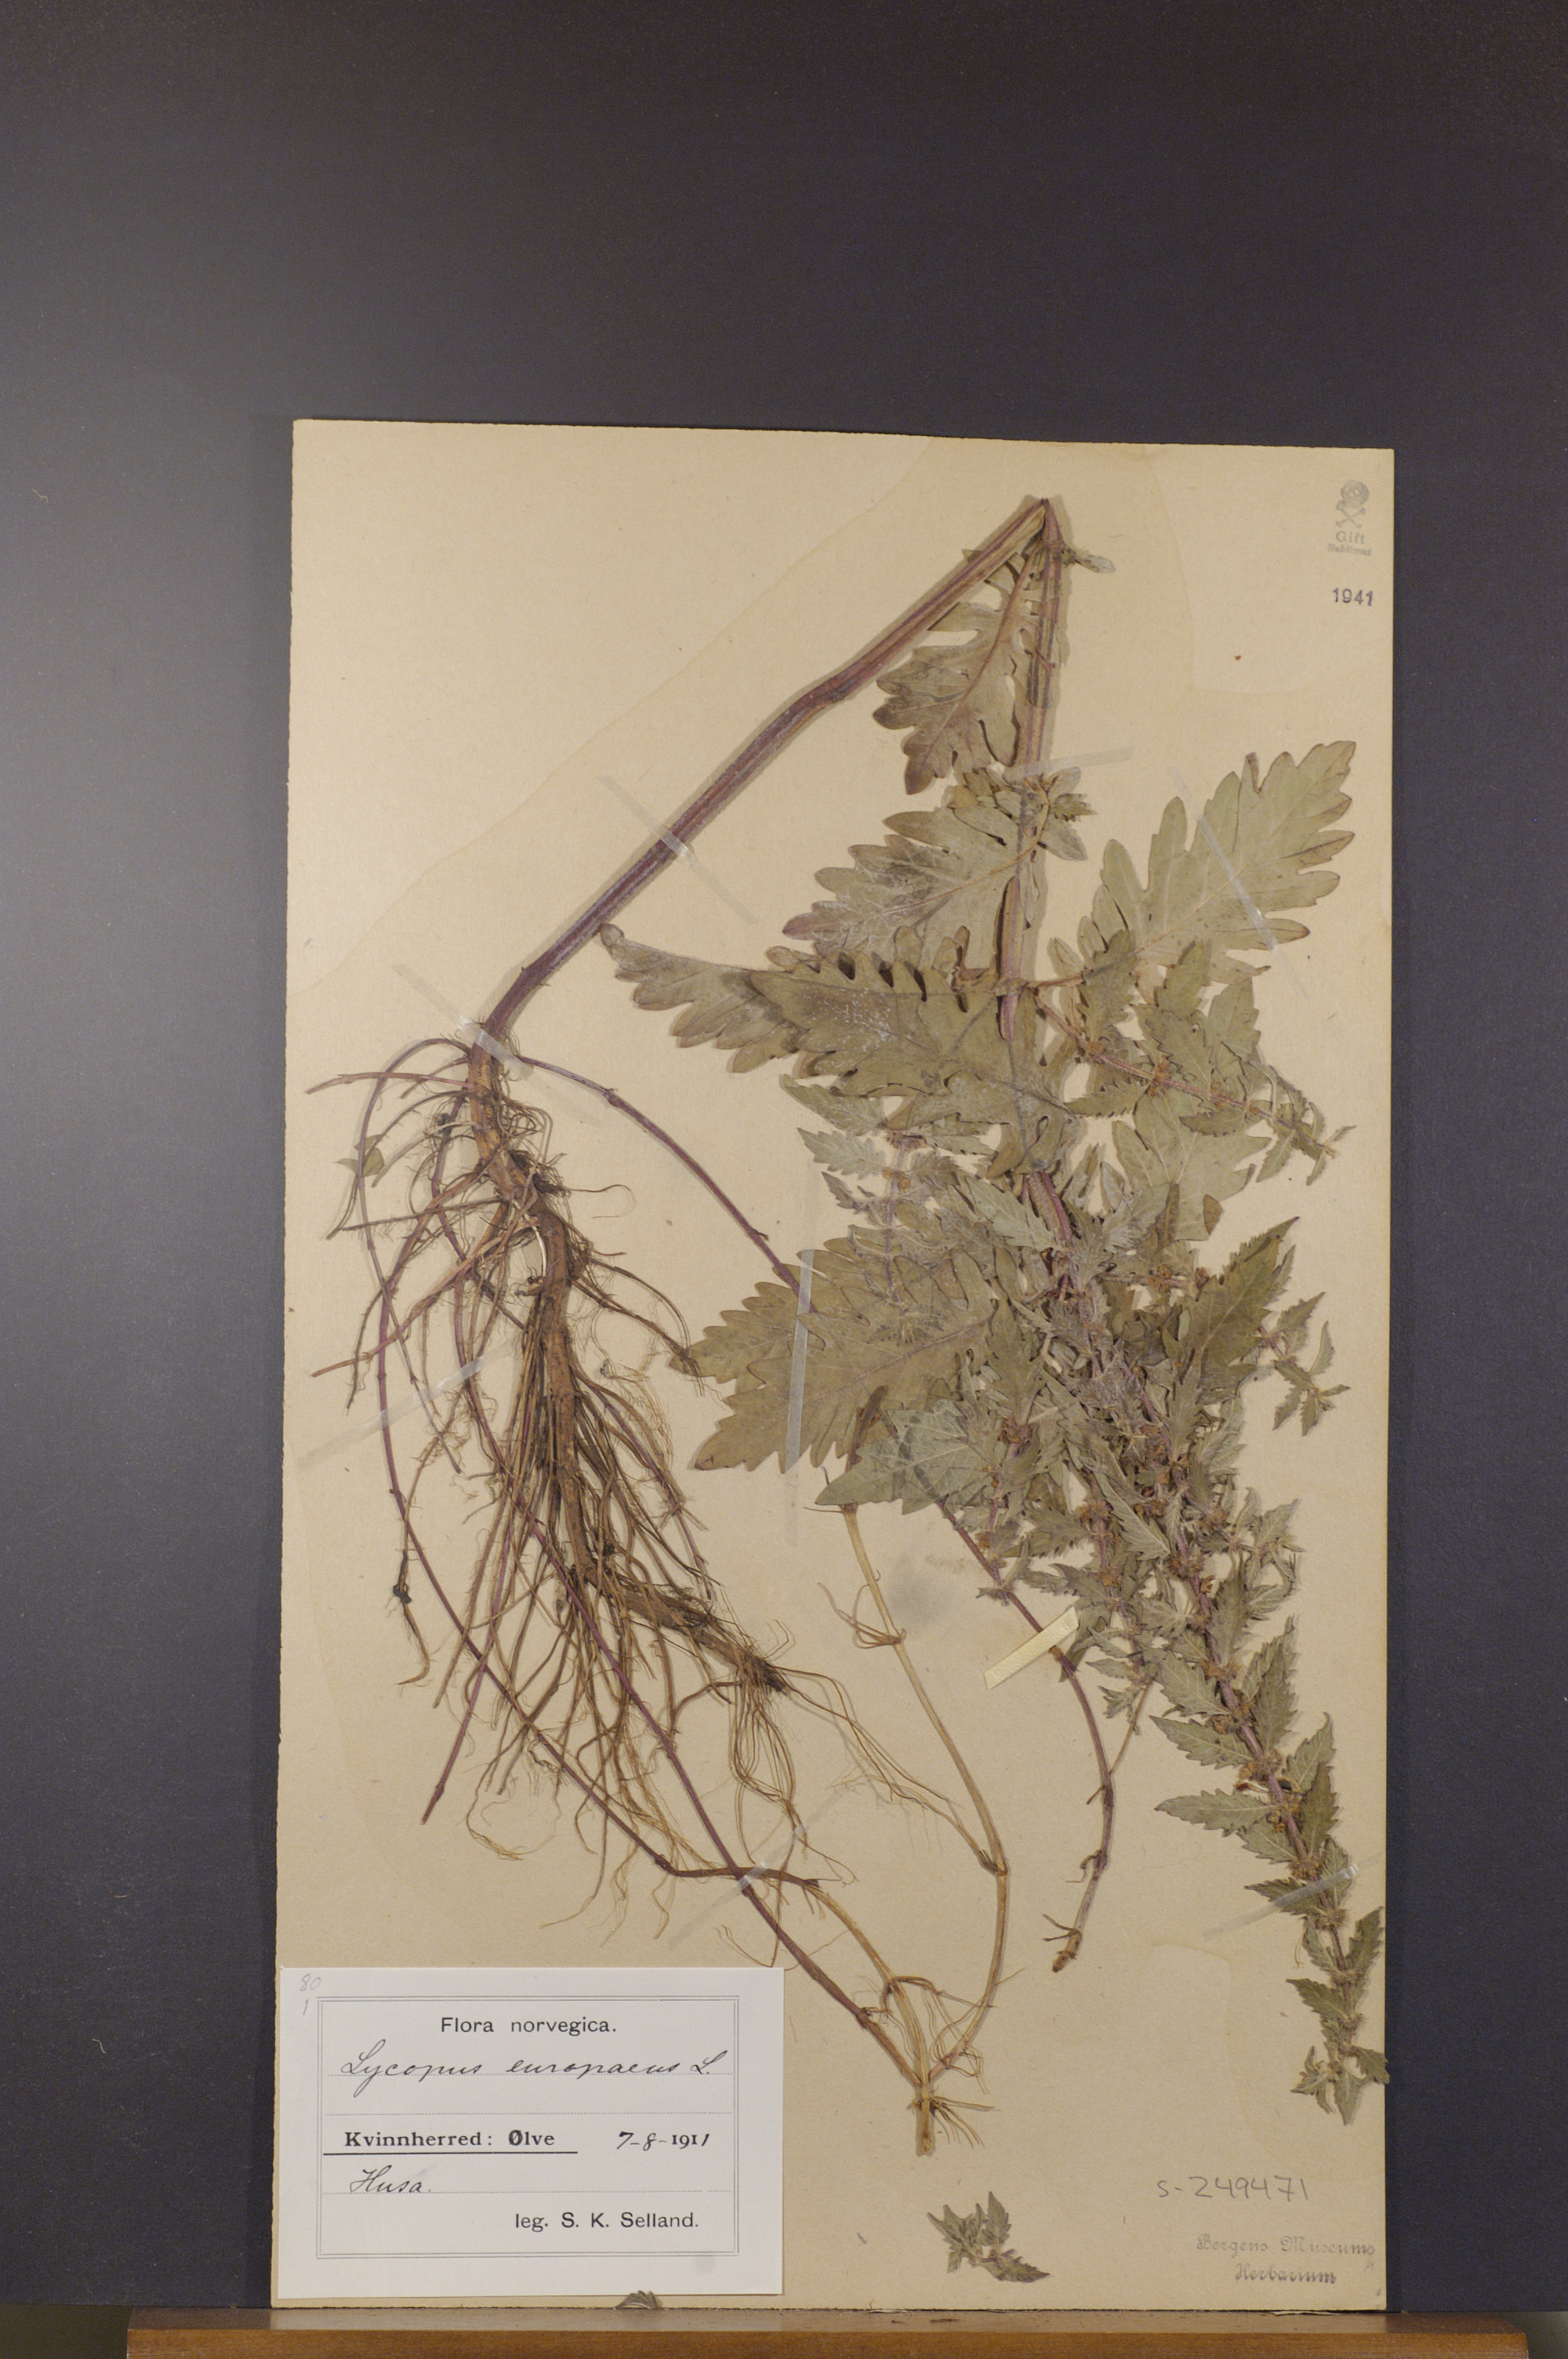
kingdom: Plantae
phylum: Tracheophyta
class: Magnoliopsida
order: Lamiales
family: Lamiaceae
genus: Lycopus
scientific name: Lycopus europaeus
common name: European bugleweed
